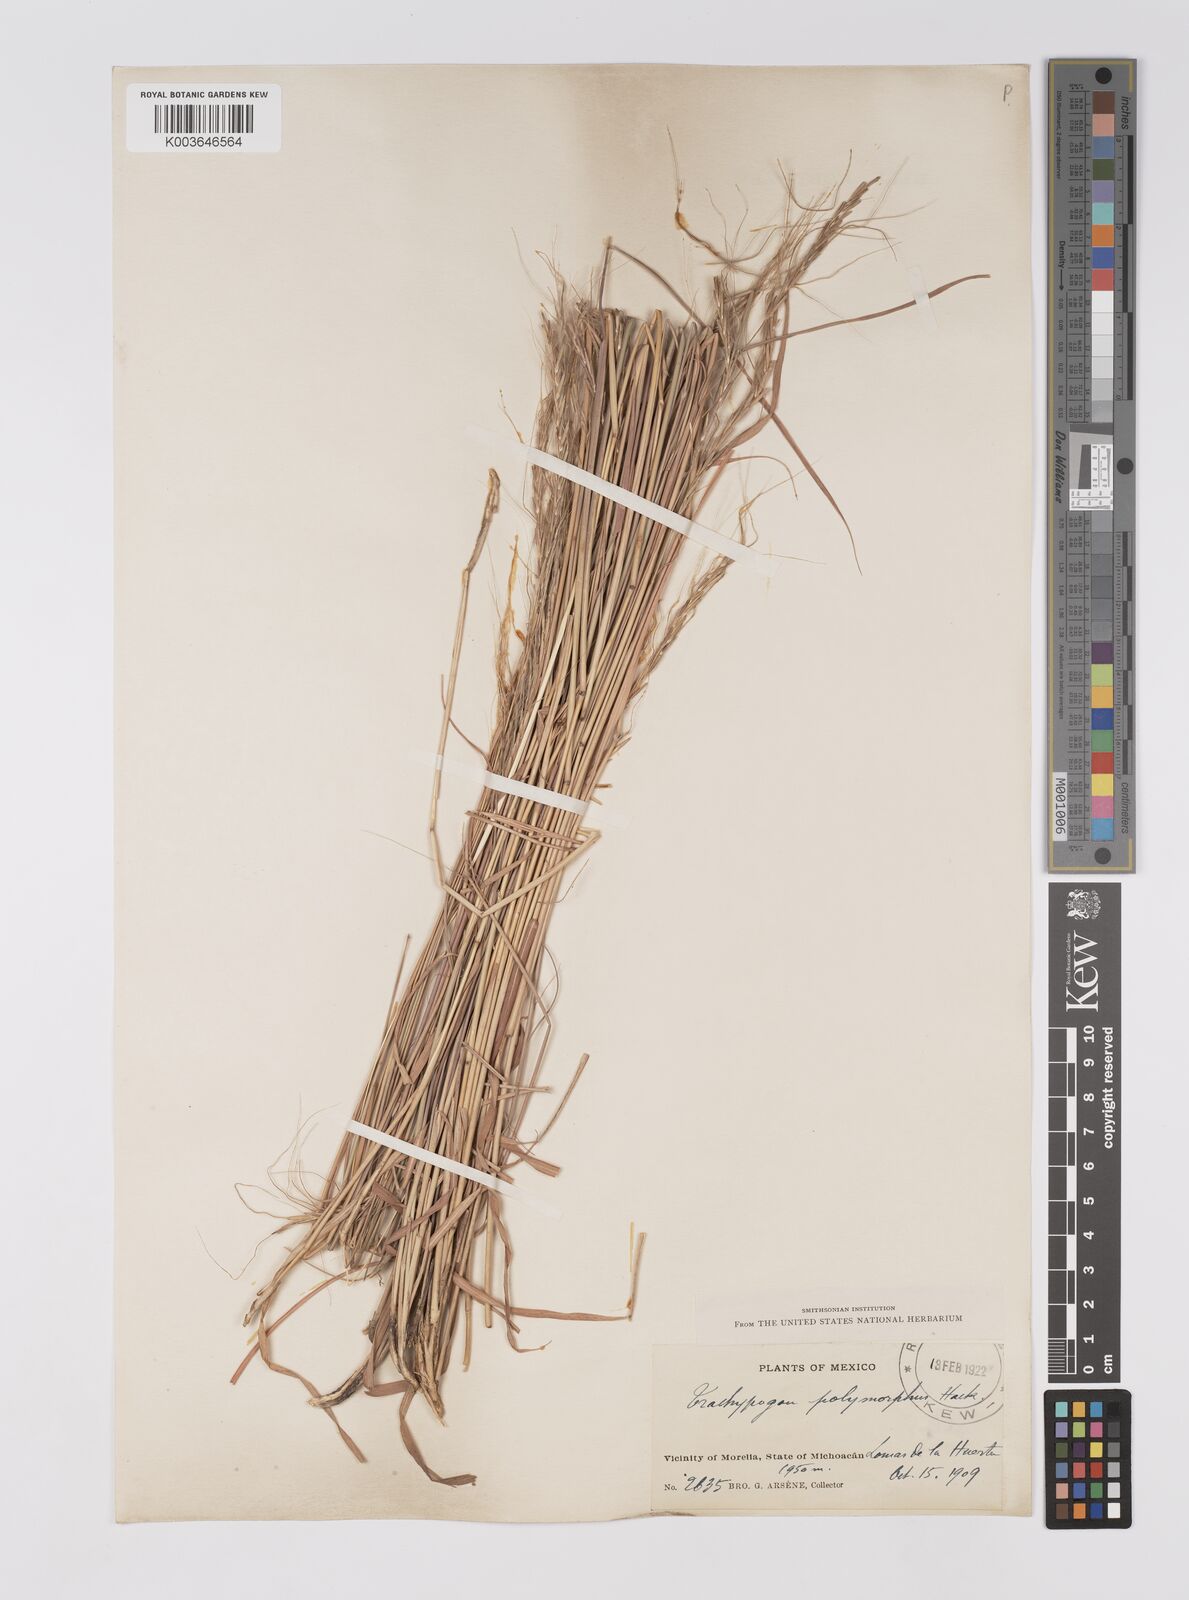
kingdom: Plantae
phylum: Tracheophyta
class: Liliopsida
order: Poales
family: Poaceae
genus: Trachypogon
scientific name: Trachypogon spicatus
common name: Crinkle-awn
